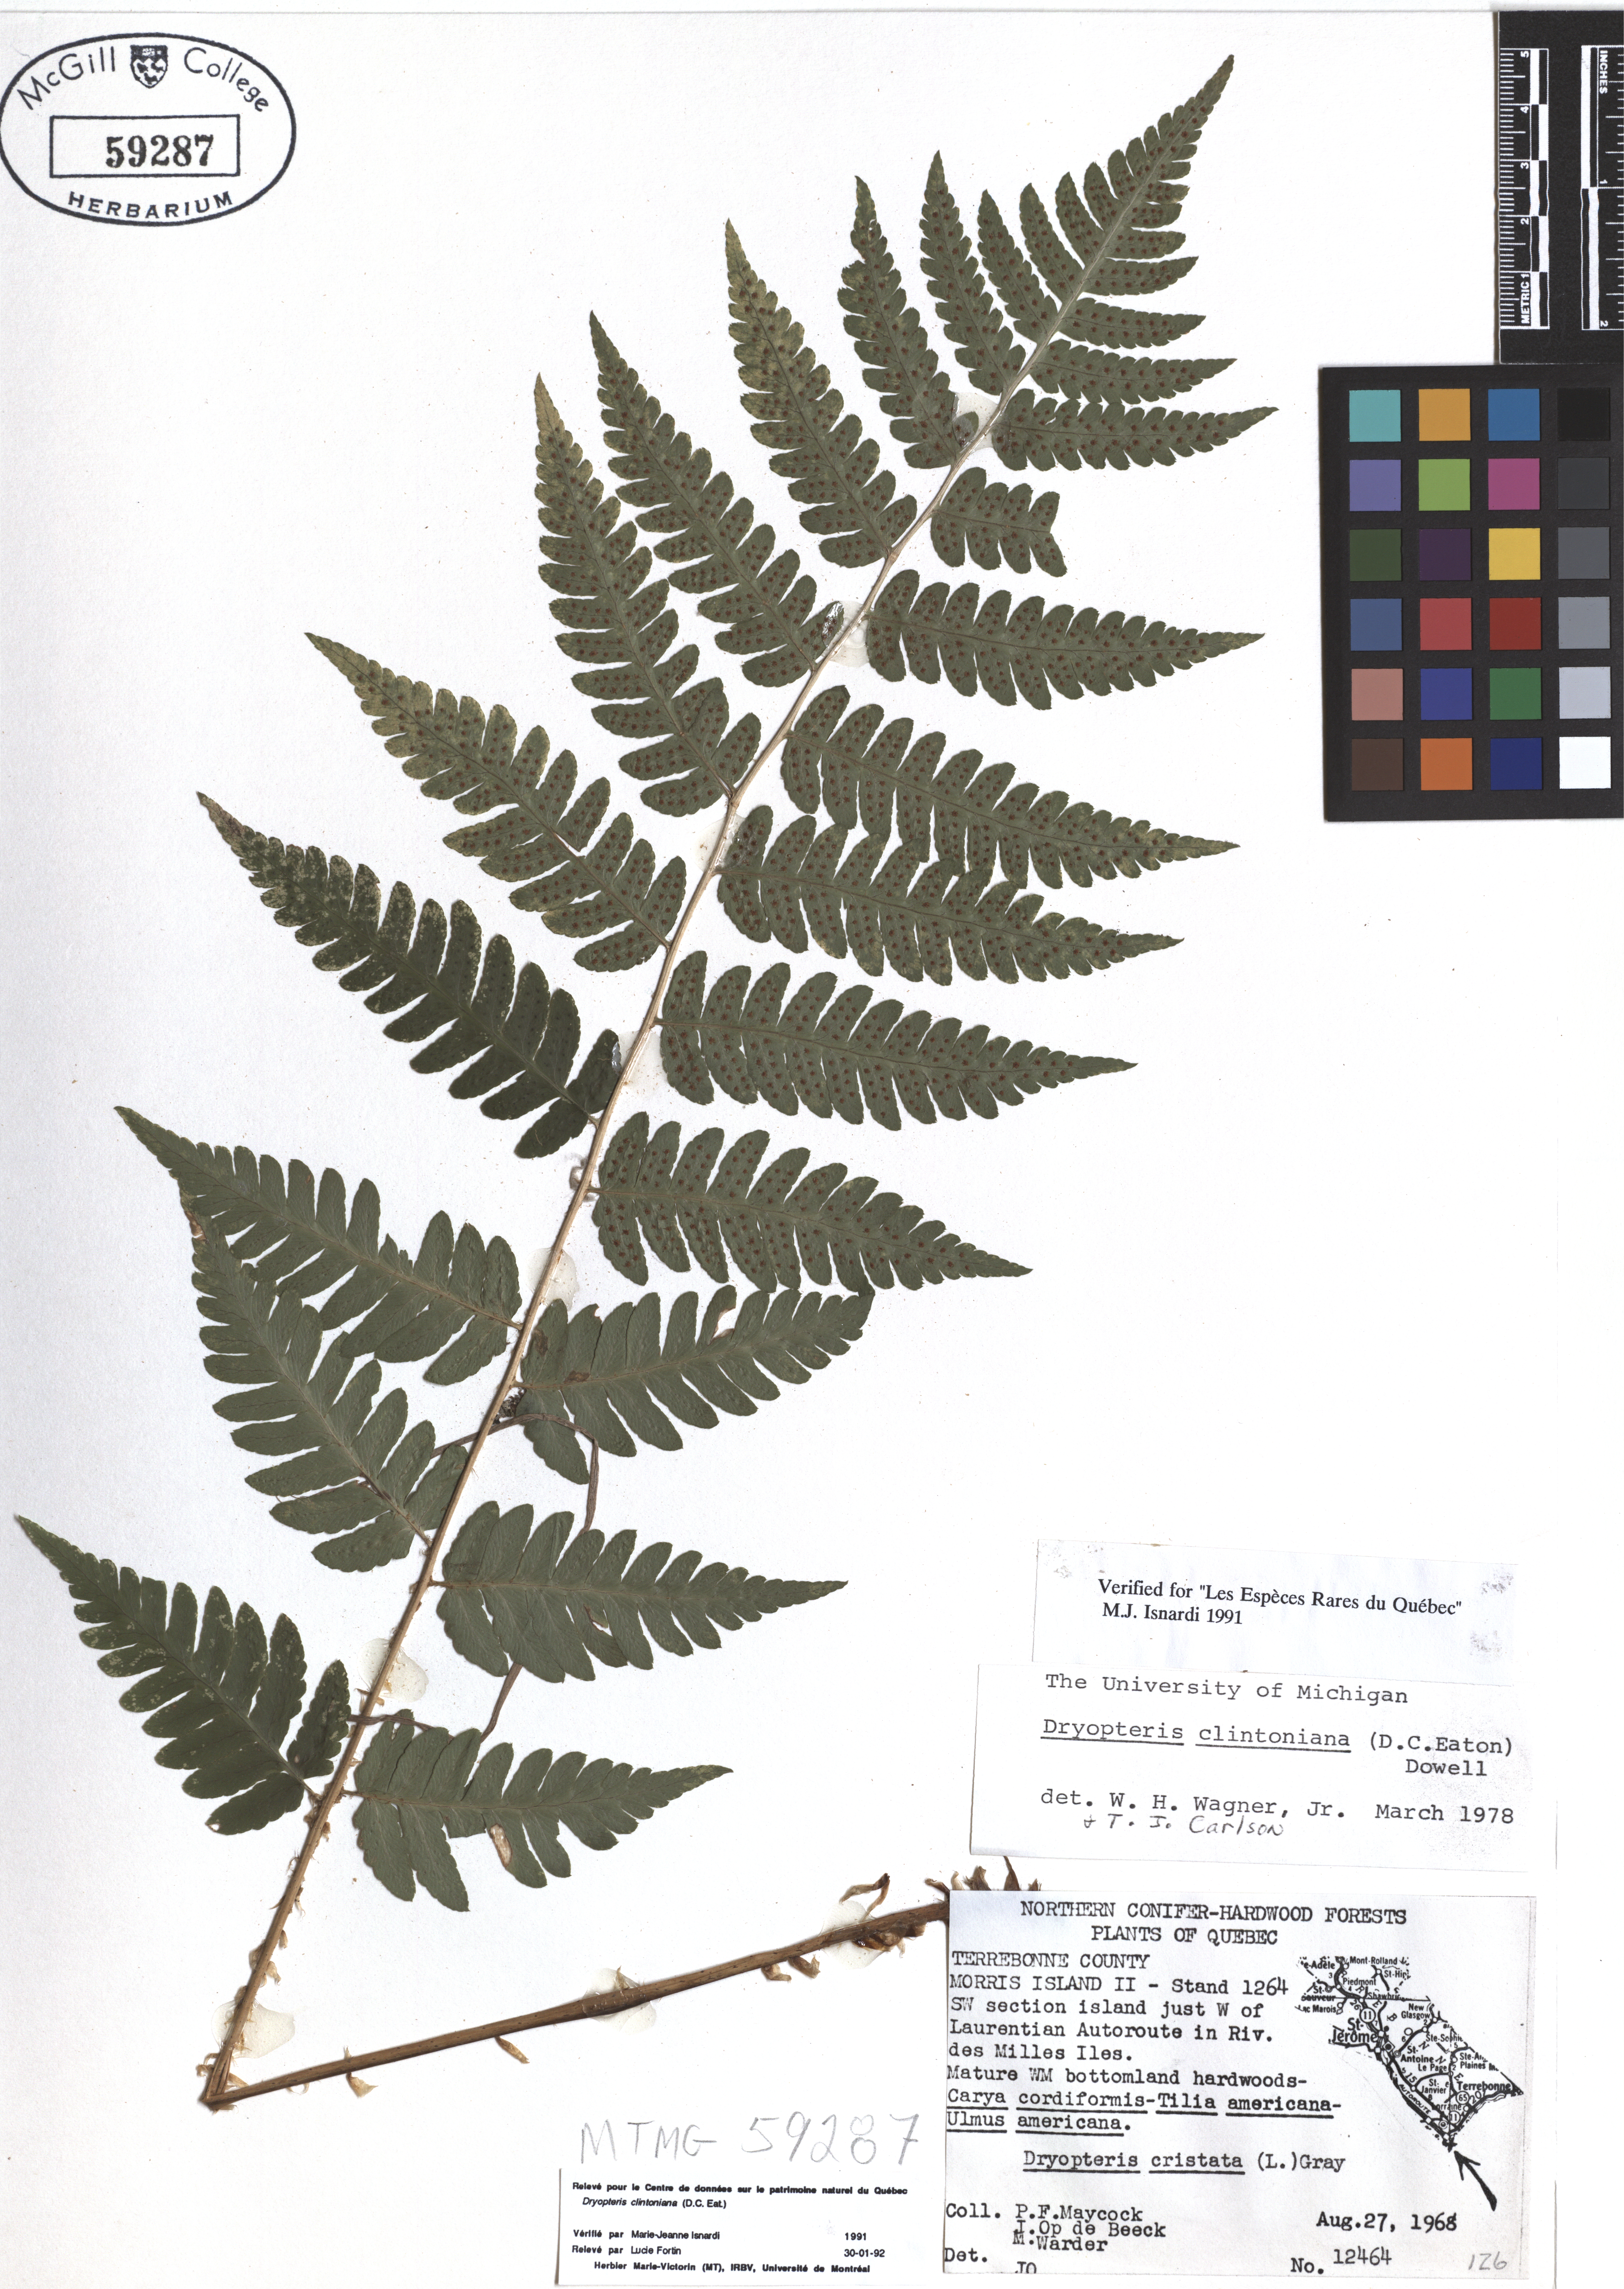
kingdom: Plantae
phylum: Tracheophyta
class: Polypodiopsida
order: Polypodiales
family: Dryopteridaceae
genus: Dryopteris
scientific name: Dryopteris clintoniana
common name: Clinton's wood fern
